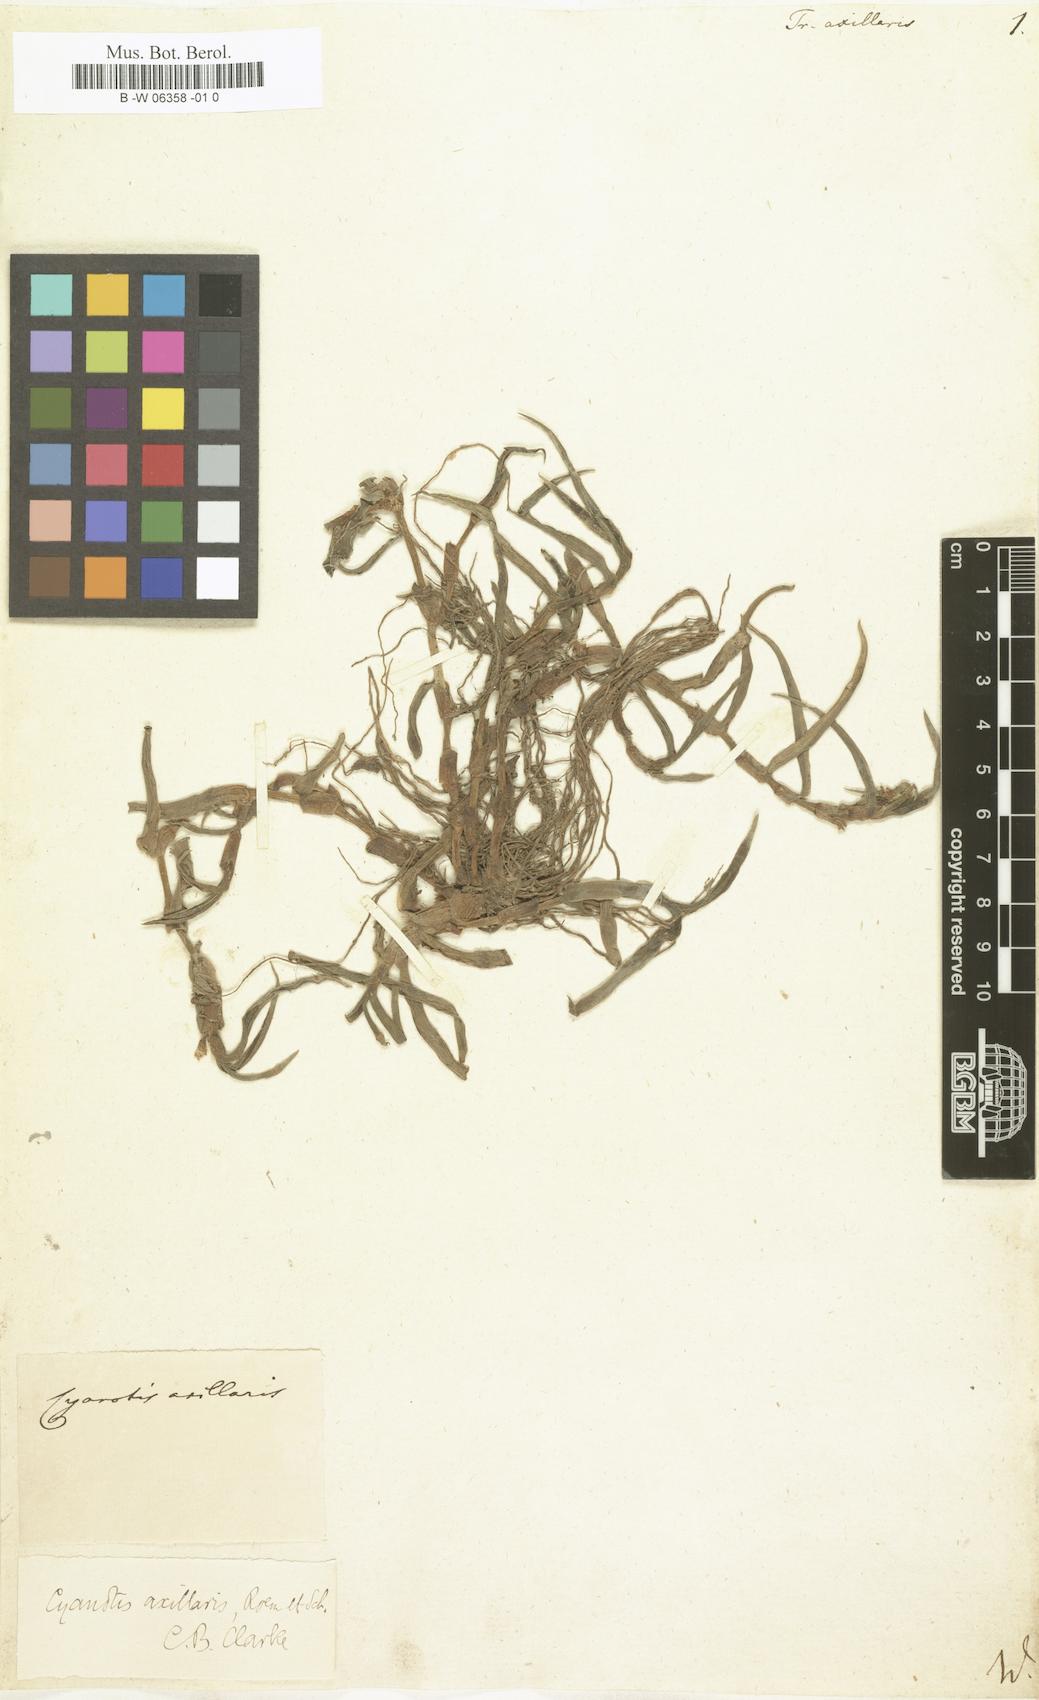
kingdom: Plantae
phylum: Tracheophyta
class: Liliopsida
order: Commelinales
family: Commelinaceae
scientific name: Commelinaceae
